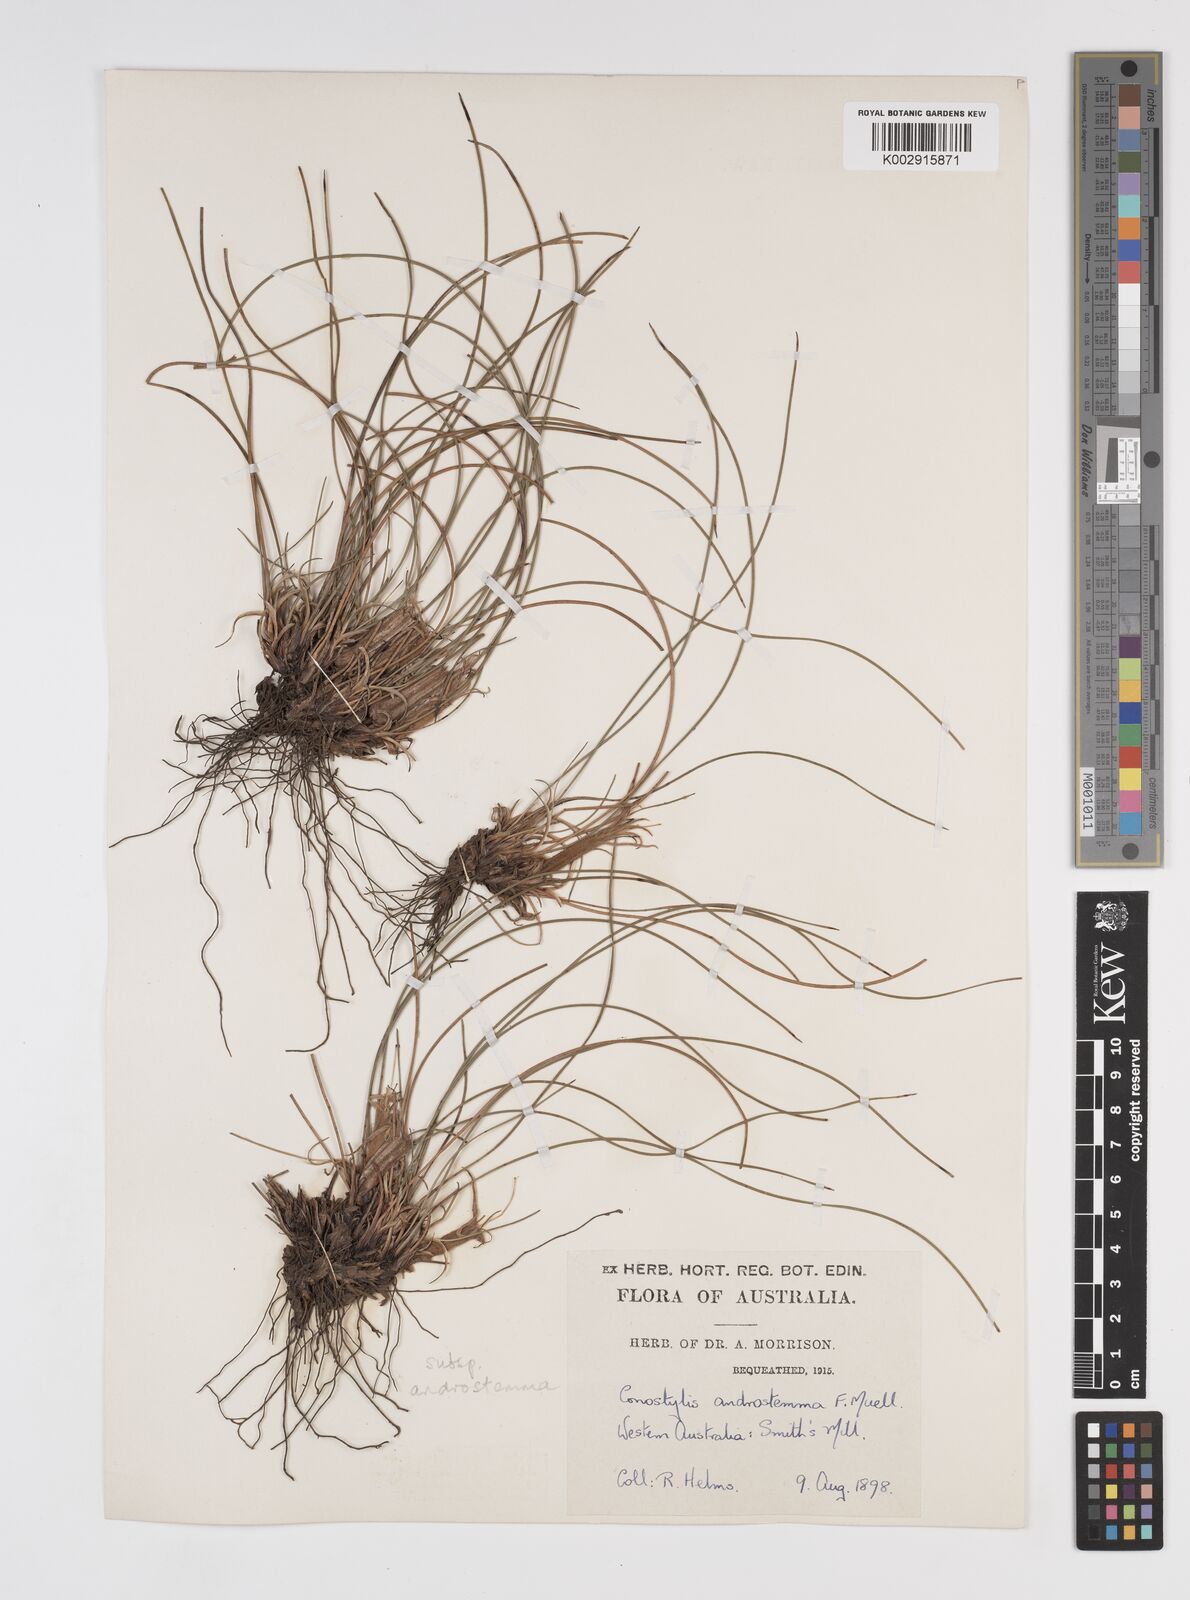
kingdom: Plantae
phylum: Tracheophyta
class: Liliopsida
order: Commelinales
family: Haemodoraceae
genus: Conostylis
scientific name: Conostylis androstemma
